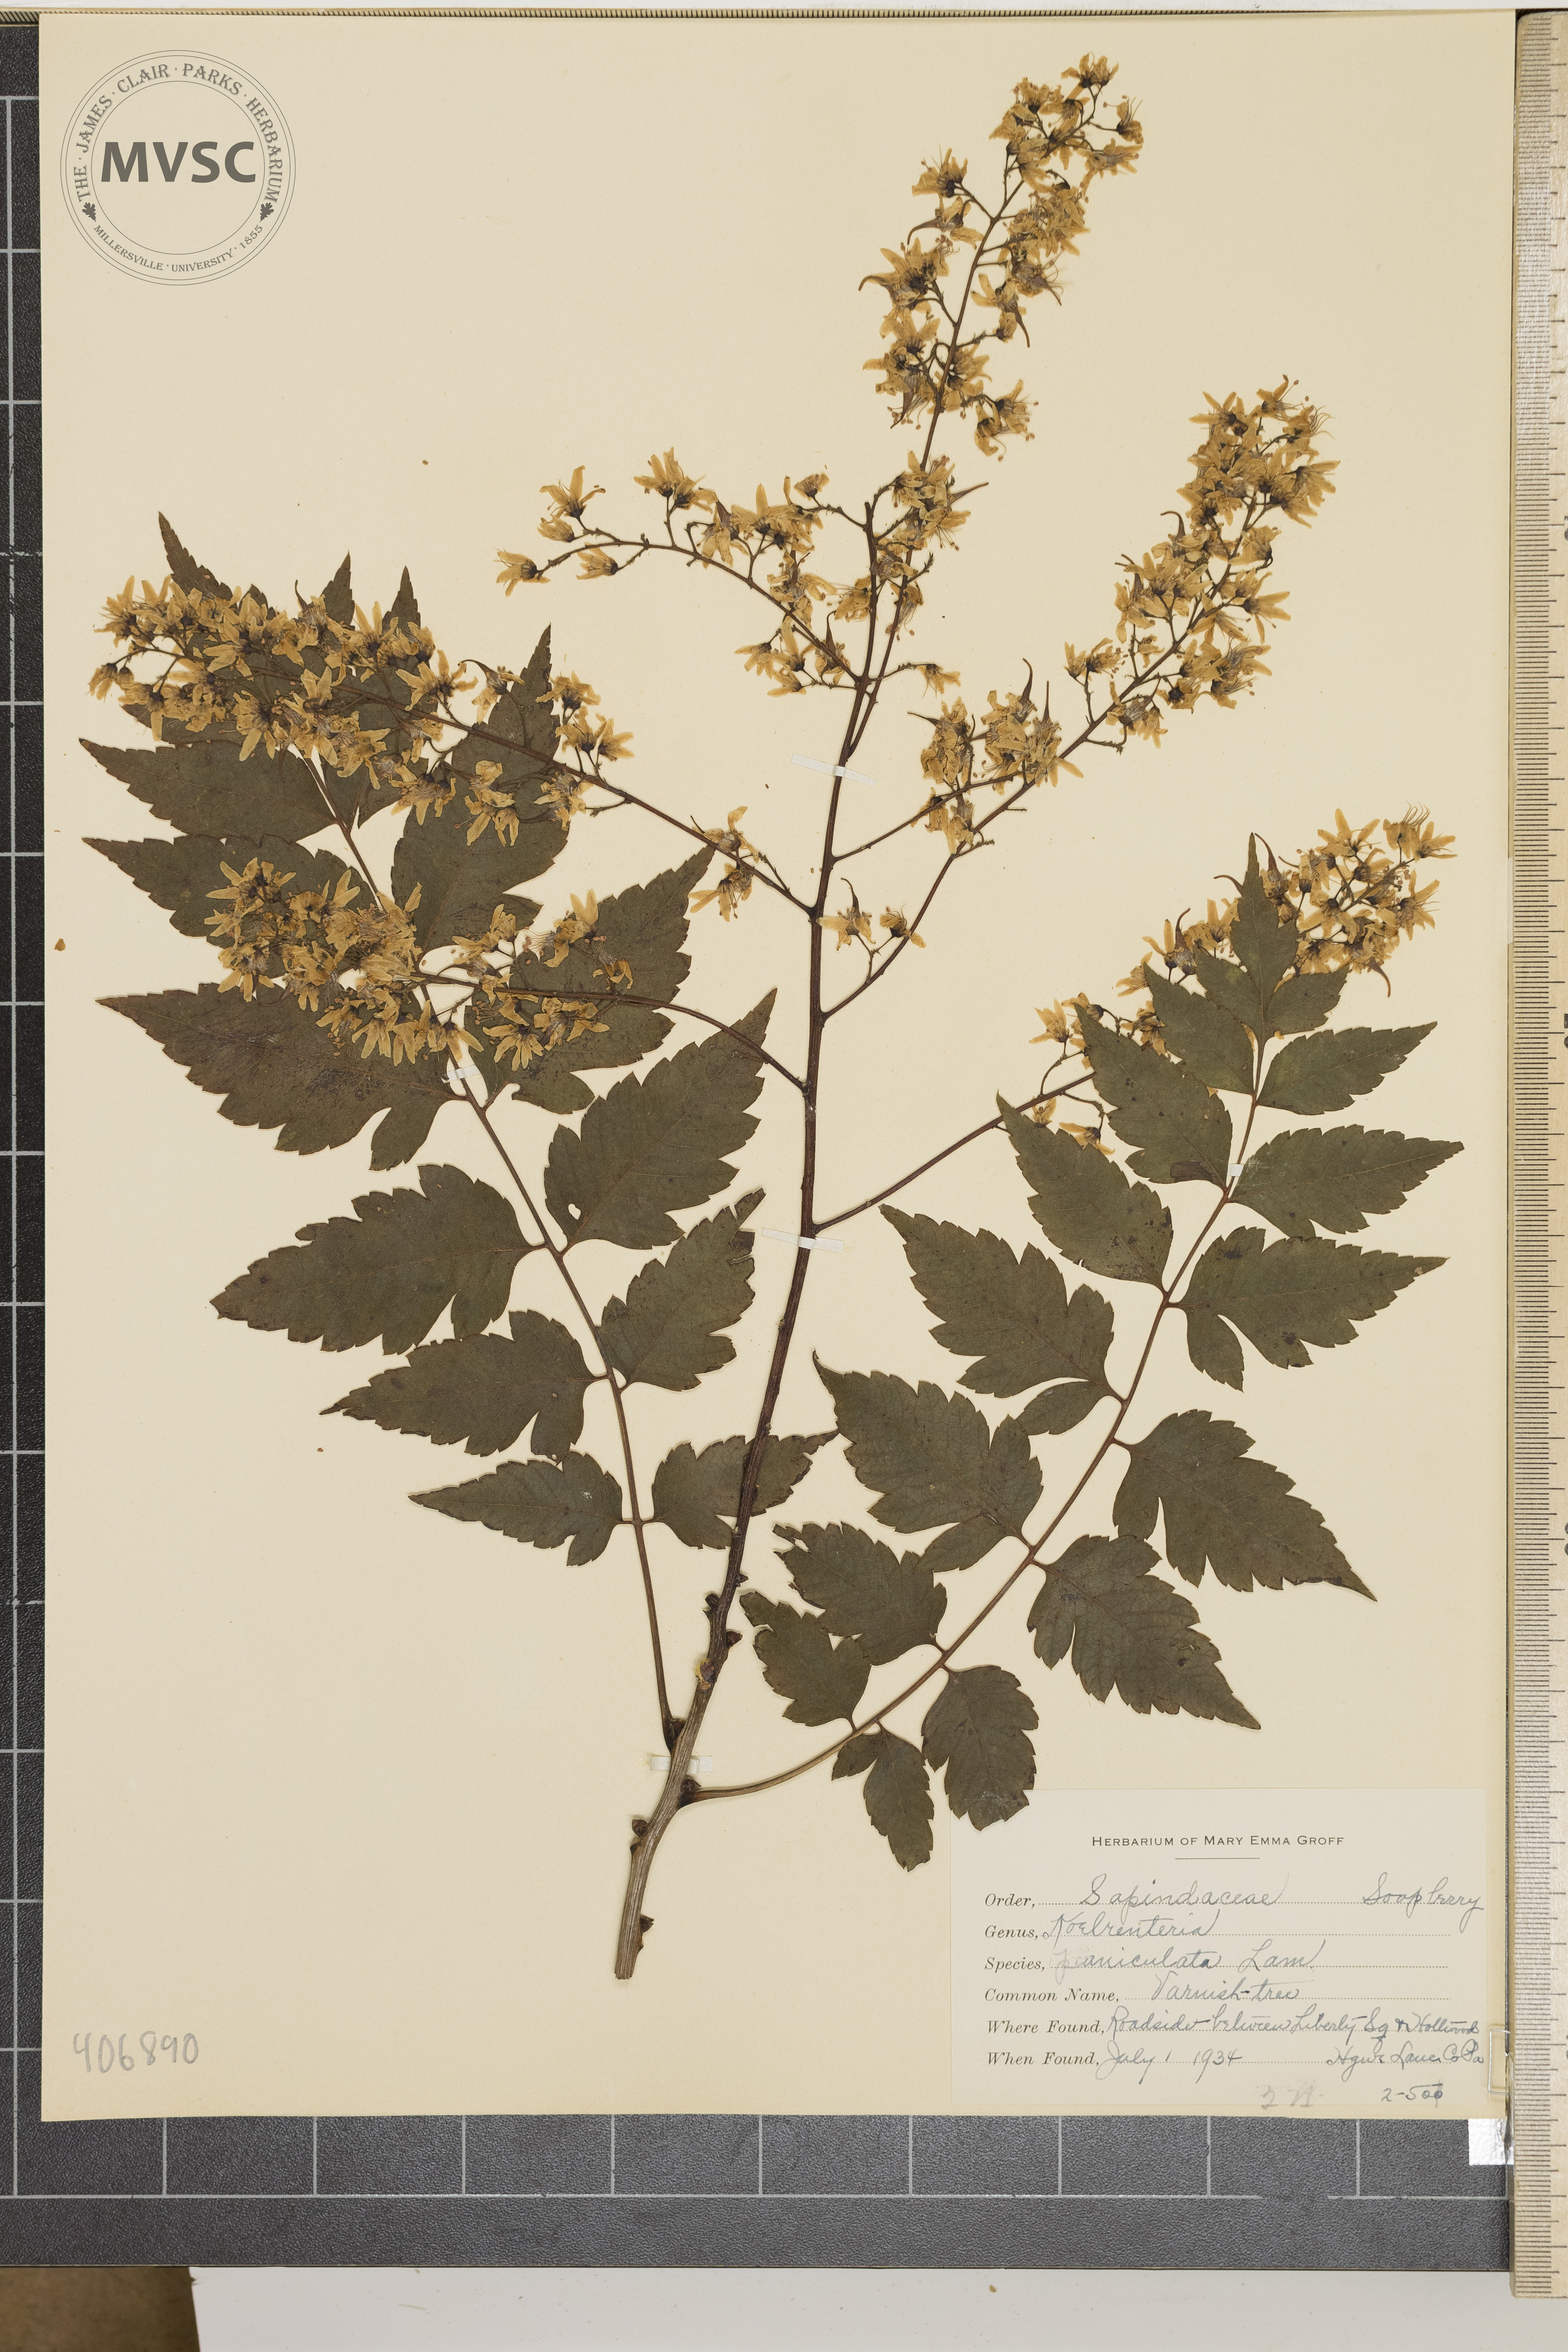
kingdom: Plantae
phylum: Tracheophyta
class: Magnoliopsida
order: Sapindales
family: Sapindaceae
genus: Koelreuteria
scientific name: Koelreuteria paniculata
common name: Varnish Tree
